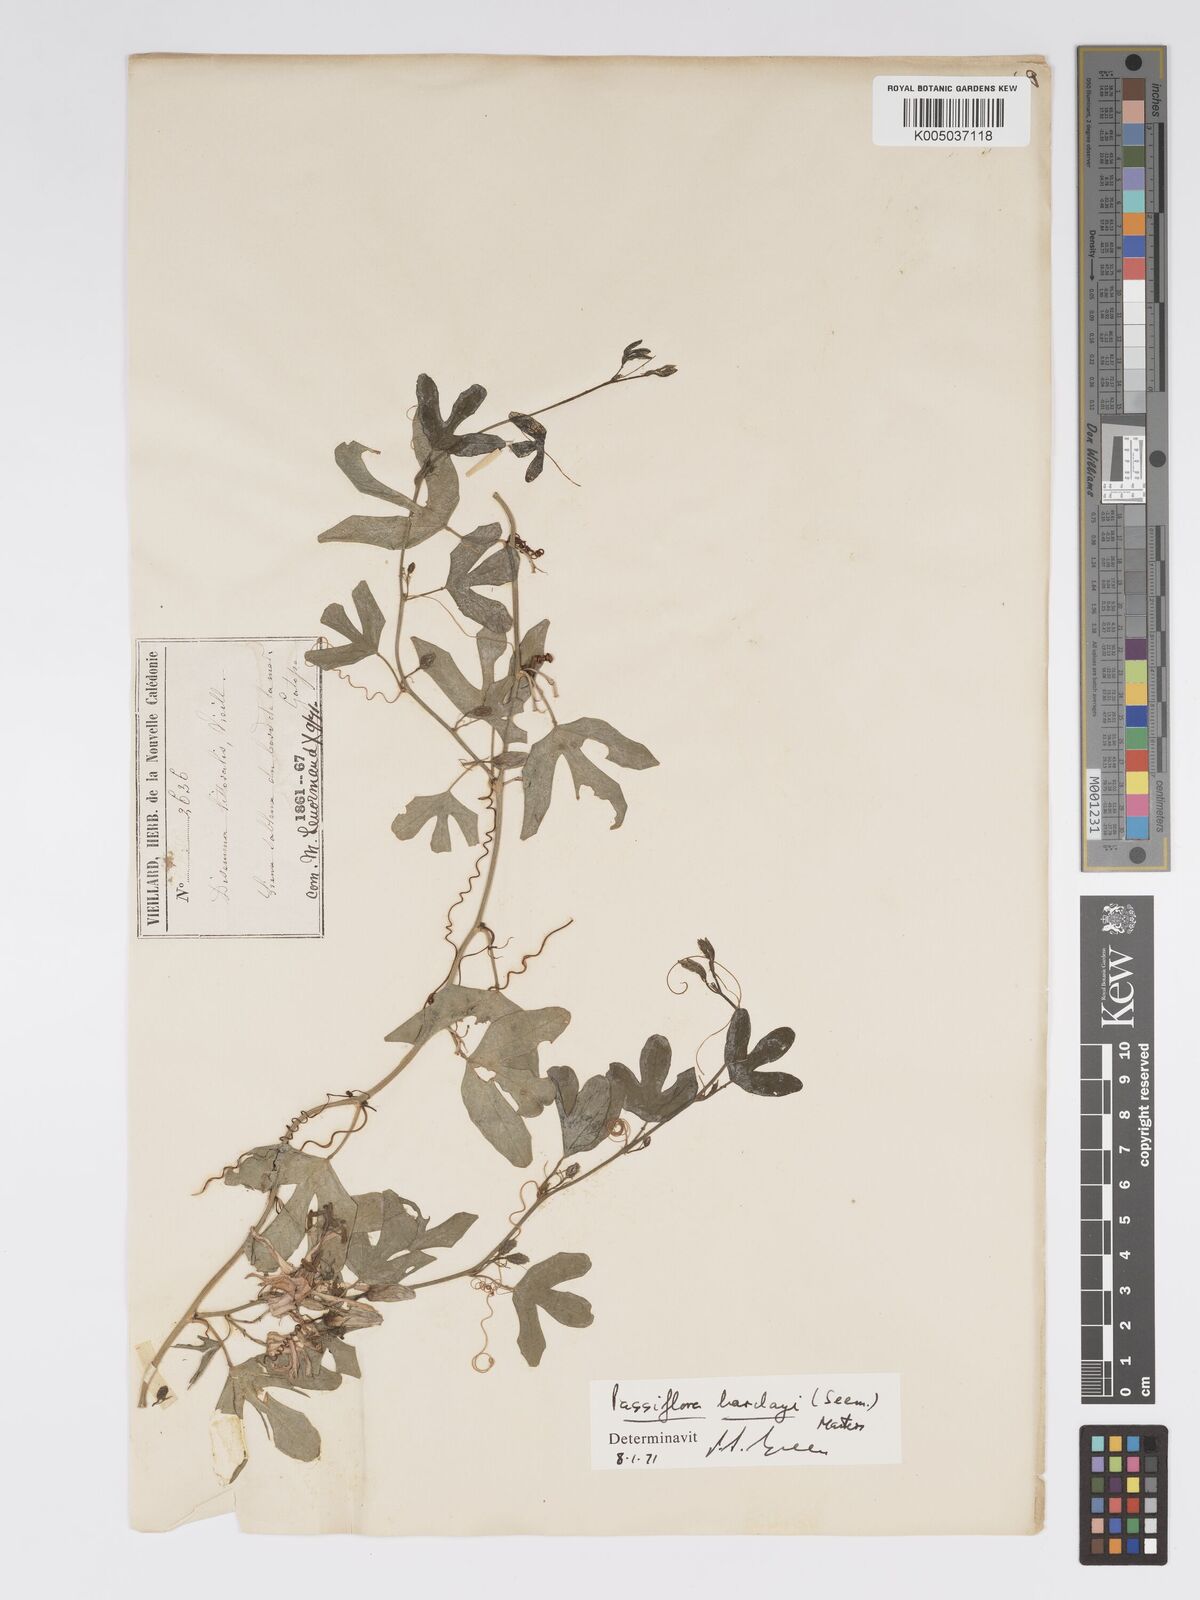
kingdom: Plantae
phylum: Tracheophyta
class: Magnoliopsida
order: Malpighiales
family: Passifloraceae
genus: Passiflora
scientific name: Passiflora barclayi
